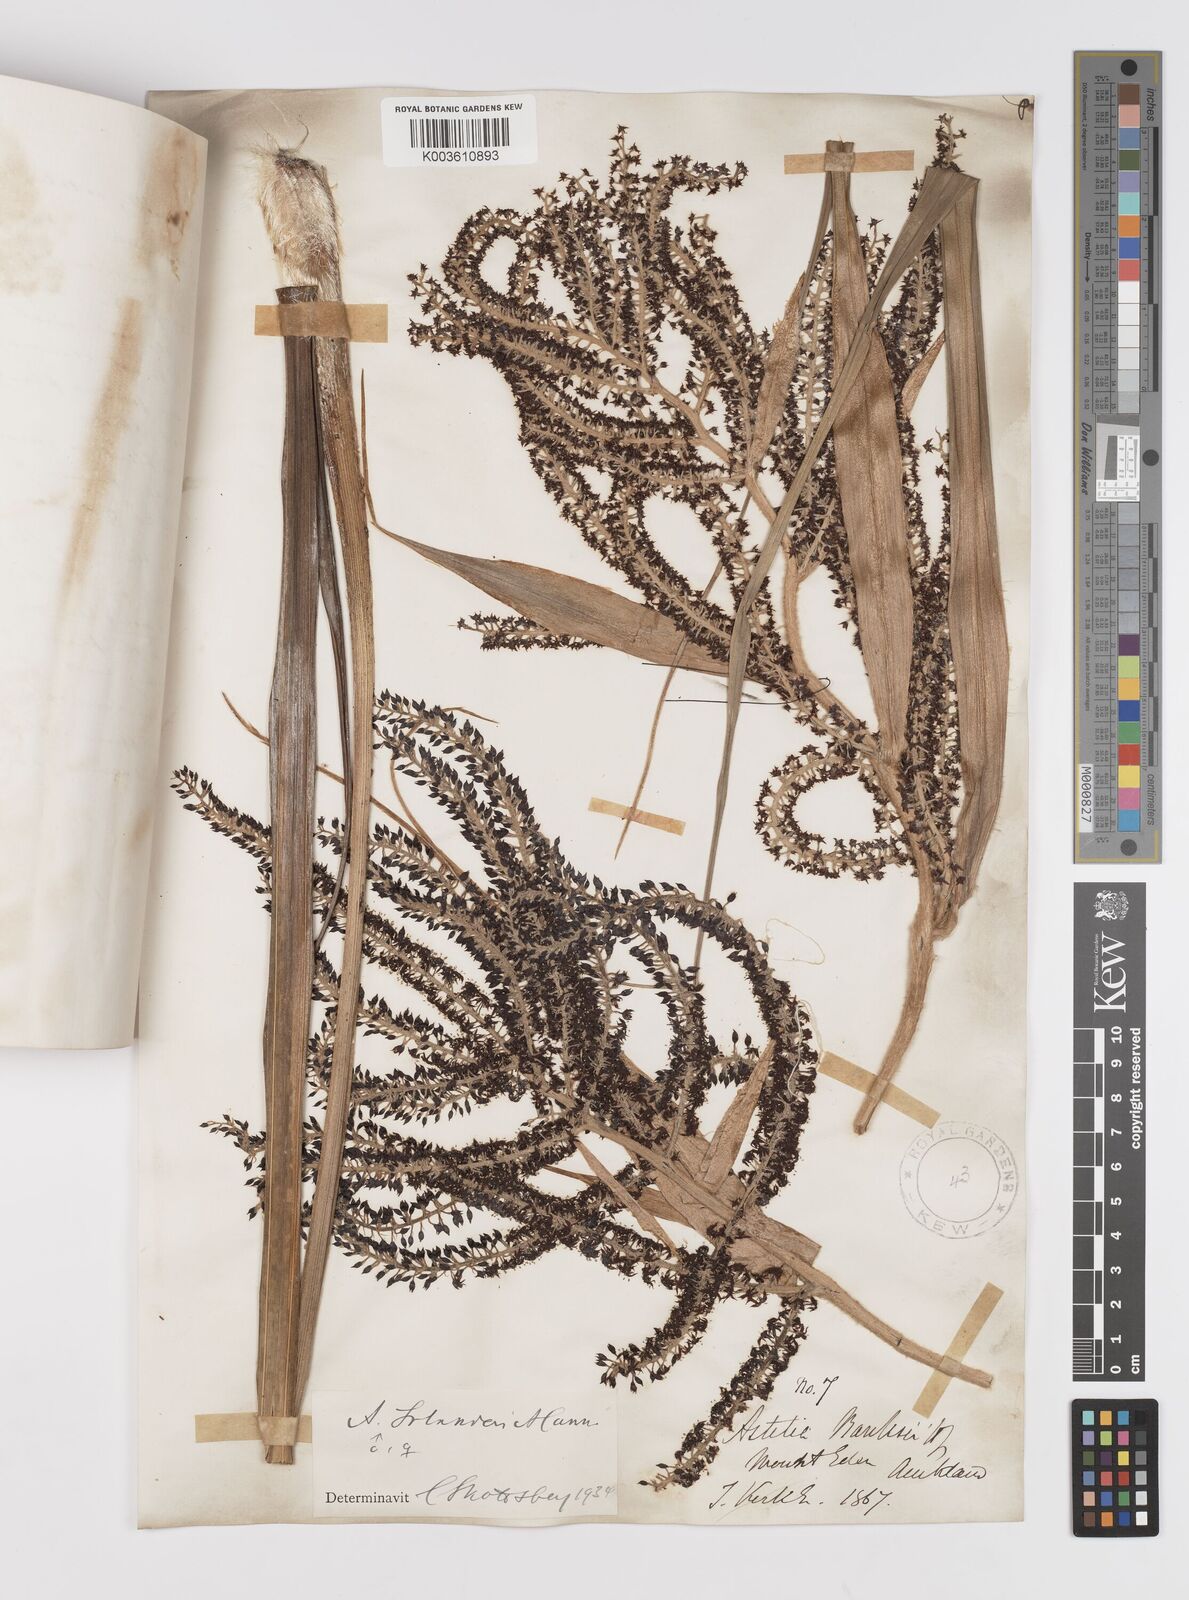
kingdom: Plantae
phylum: Tracheophyta
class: Liliopsida
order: Asparagales
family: Asteliaceae
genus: Astelia
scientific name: Astelia solandri
